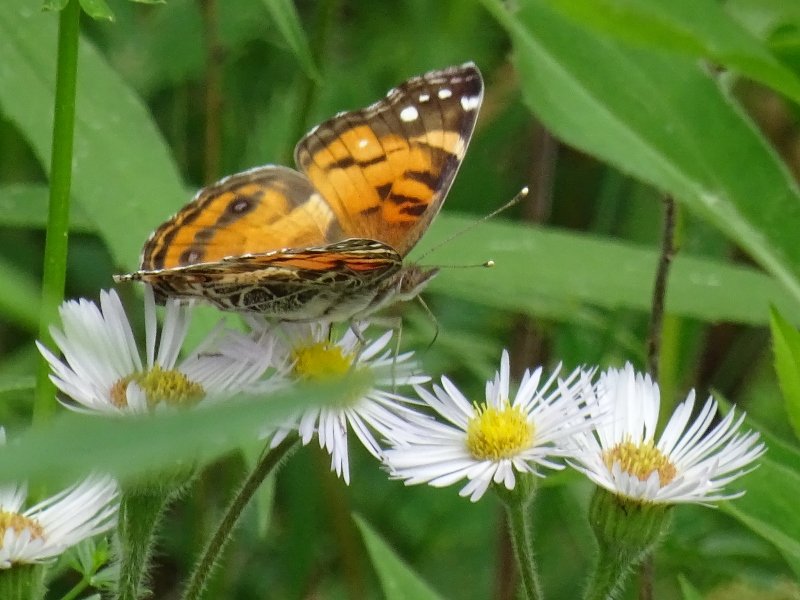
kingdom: Animalia
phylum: Arthropoda
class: Insecta
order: Lepidoptera
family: Nymphalidae
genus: Vanessa
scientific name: Vanessa virginiensis
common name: American Lady
